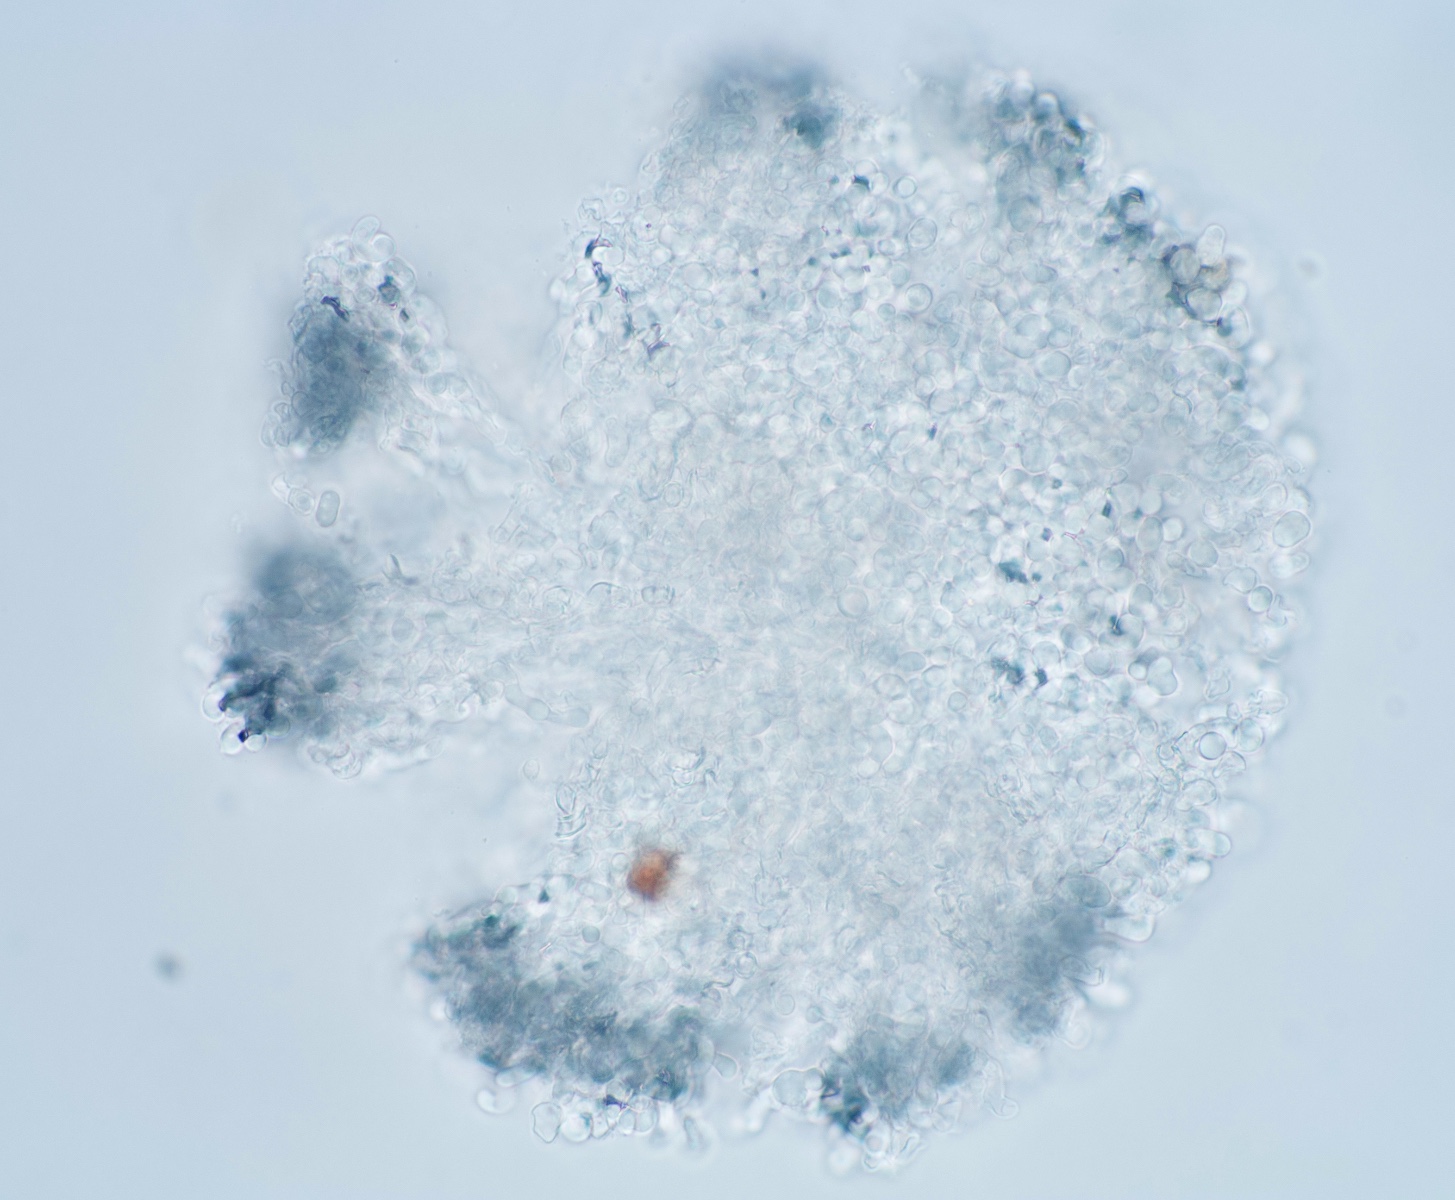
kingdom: Fungi
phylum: Basidiomycota
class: Agaricomycetes
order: Polyporales
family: Meruliaceae
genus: Bulbillomyces
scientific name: Bulbillomyces farinosus
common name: æg-kalkskind
